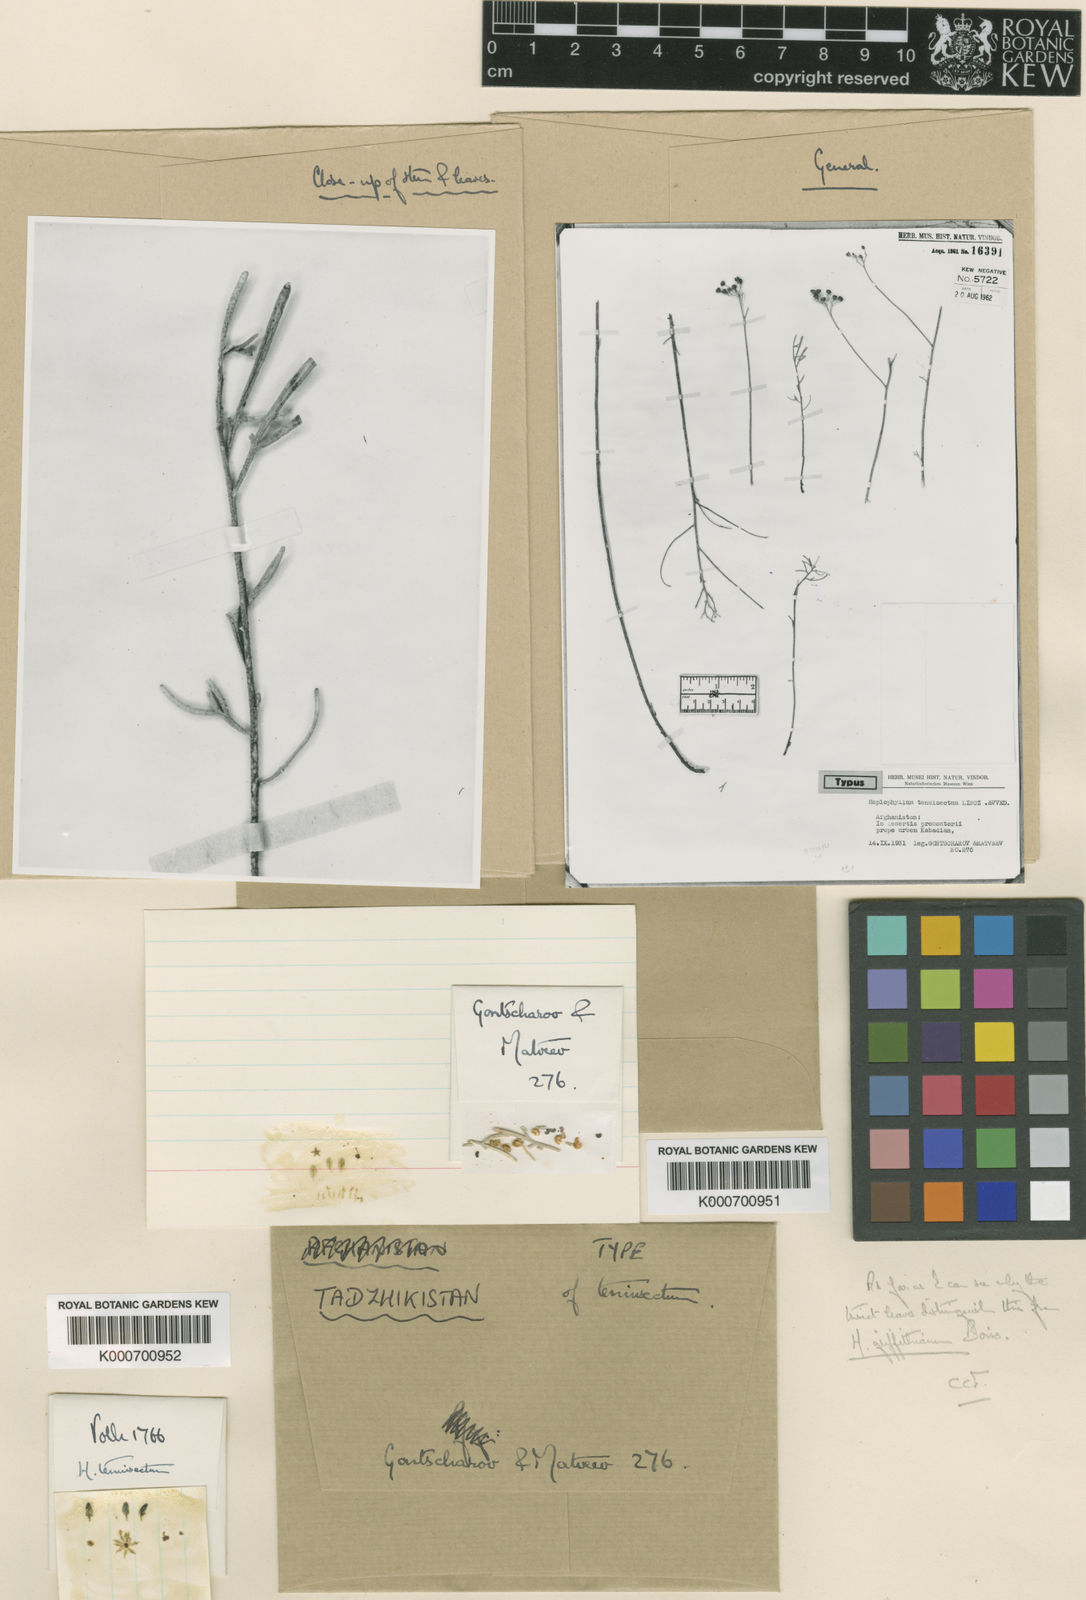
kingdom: Plantae
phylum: Tracheophyta
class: Magnoliopsida
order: Sapindales
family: Rutaceae
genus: Haplophyllum
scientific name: Haplophyllum griffithianum
